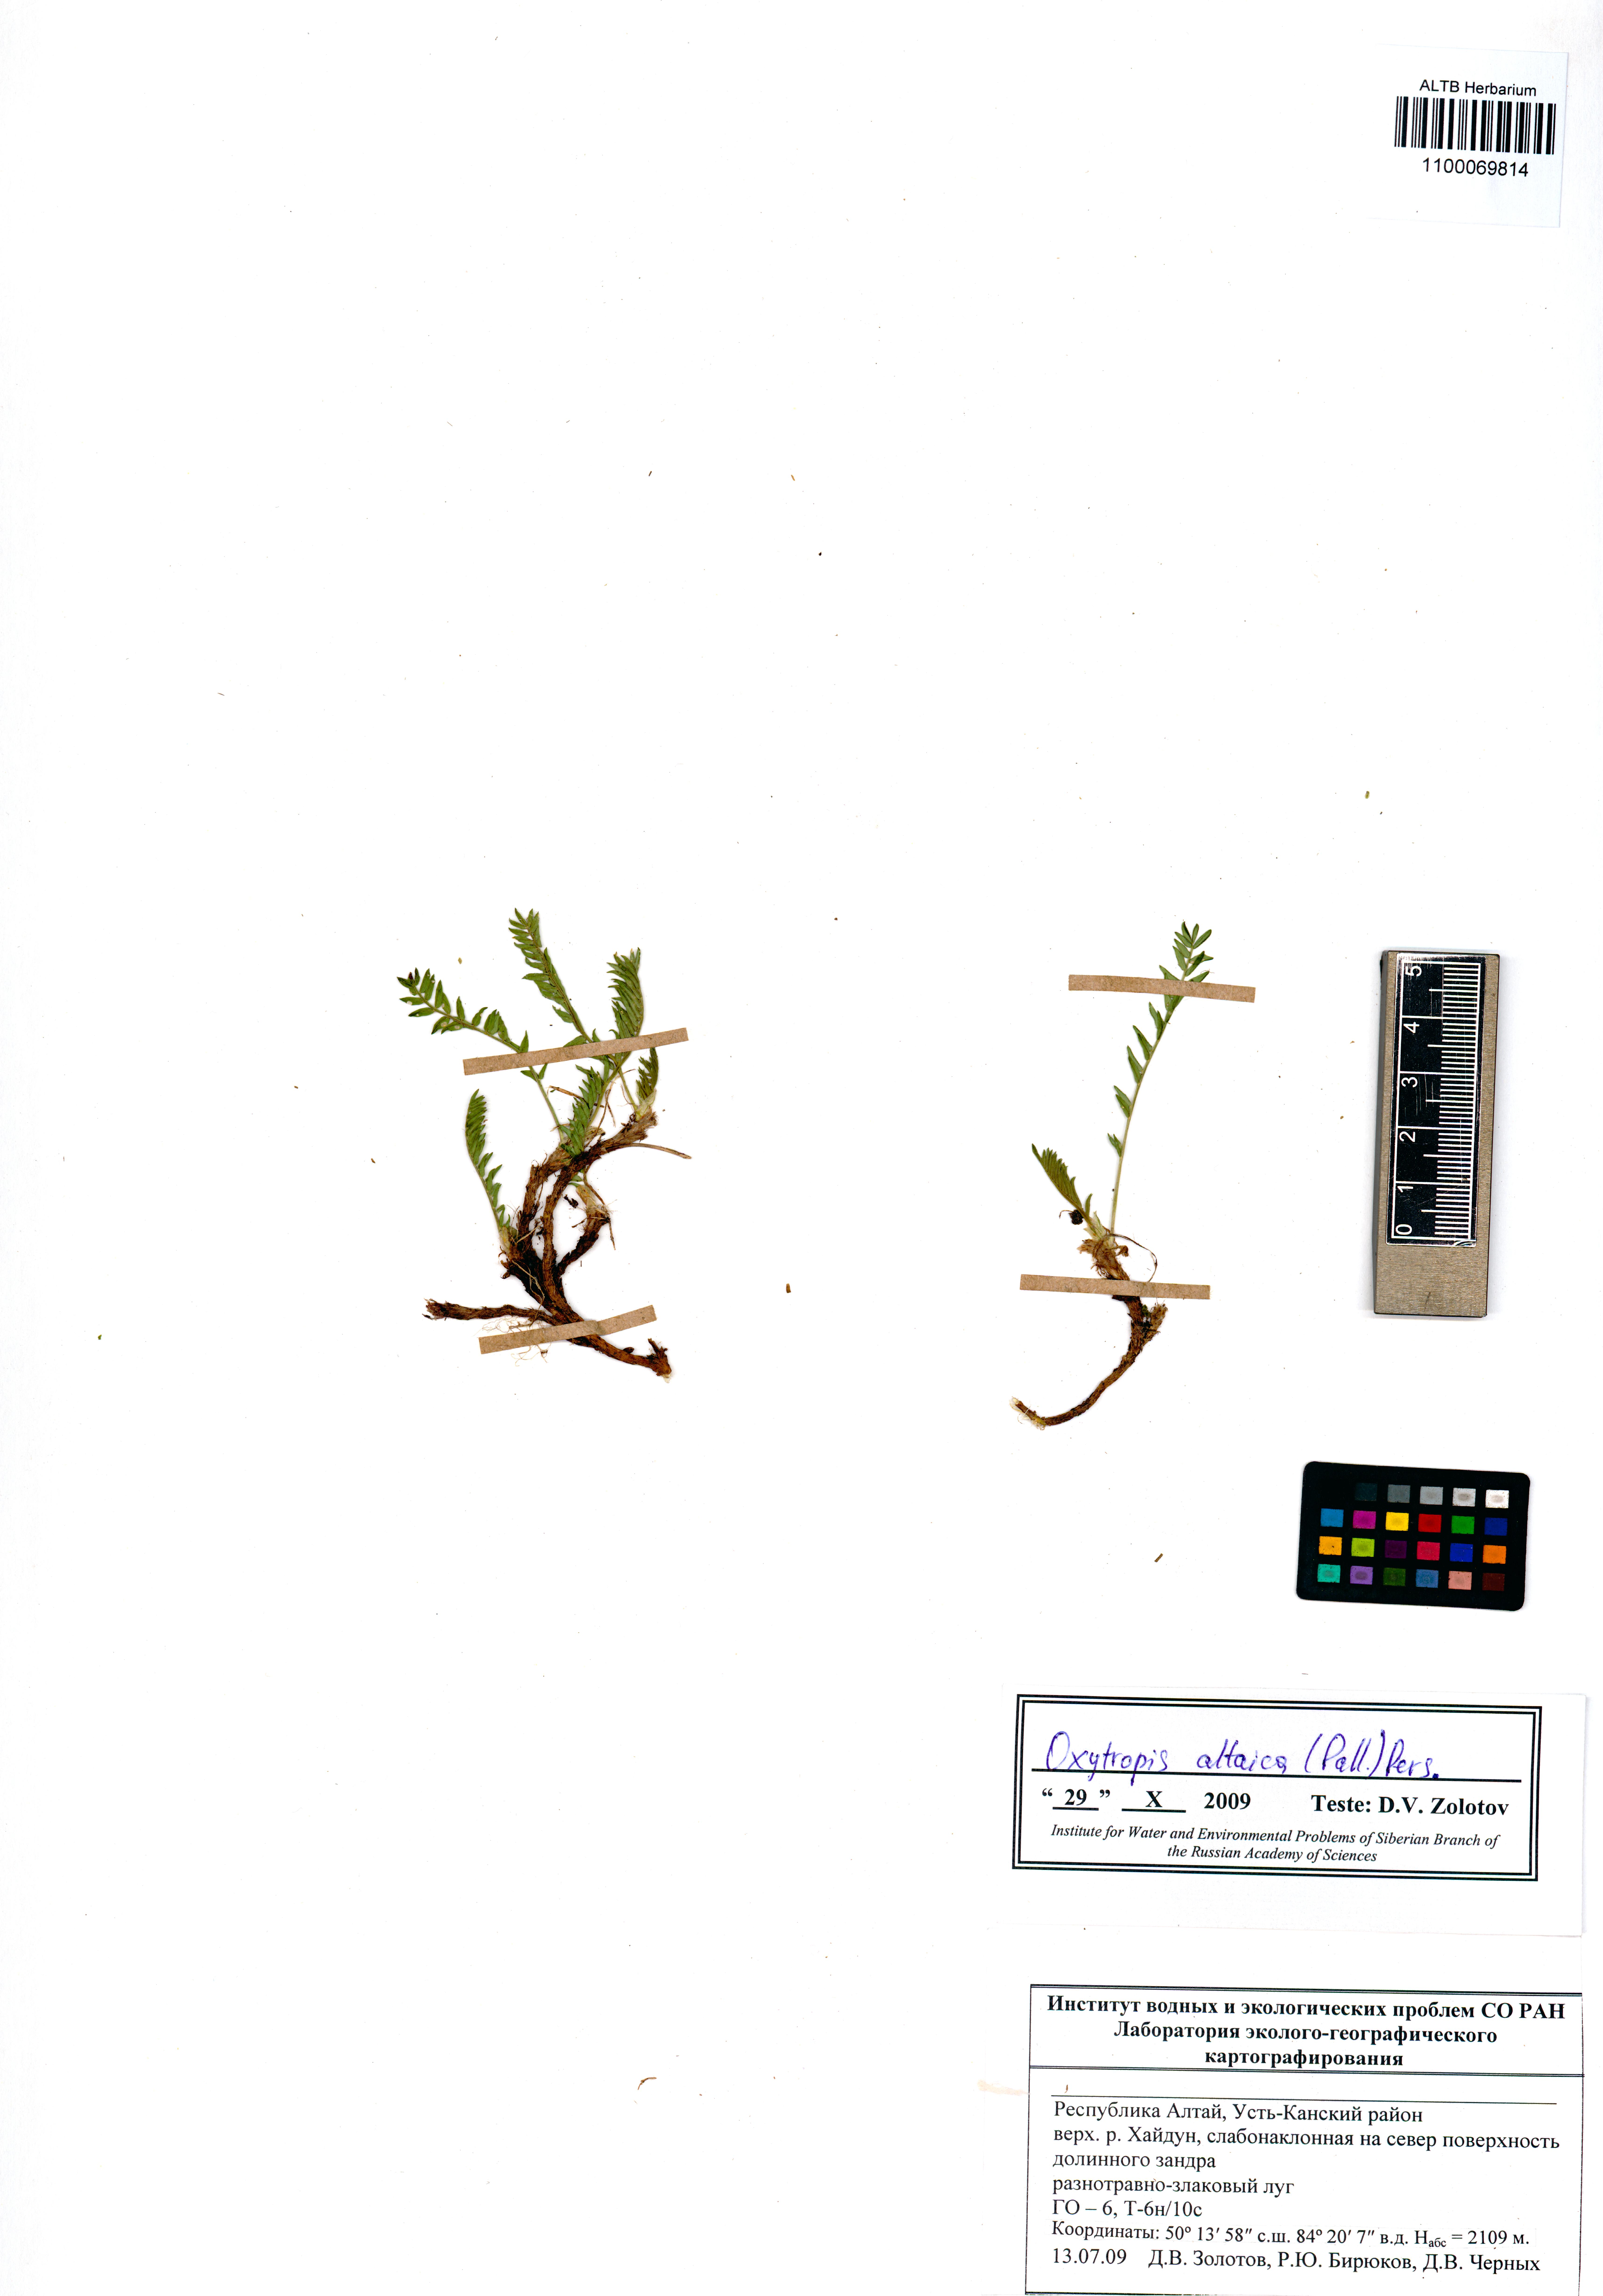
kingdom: Plantae
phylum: Tracheophyta
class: Magnoliopsida
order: Fabales
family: Fabaceae
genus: Oxytropis
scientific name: Oxytropis altaica
